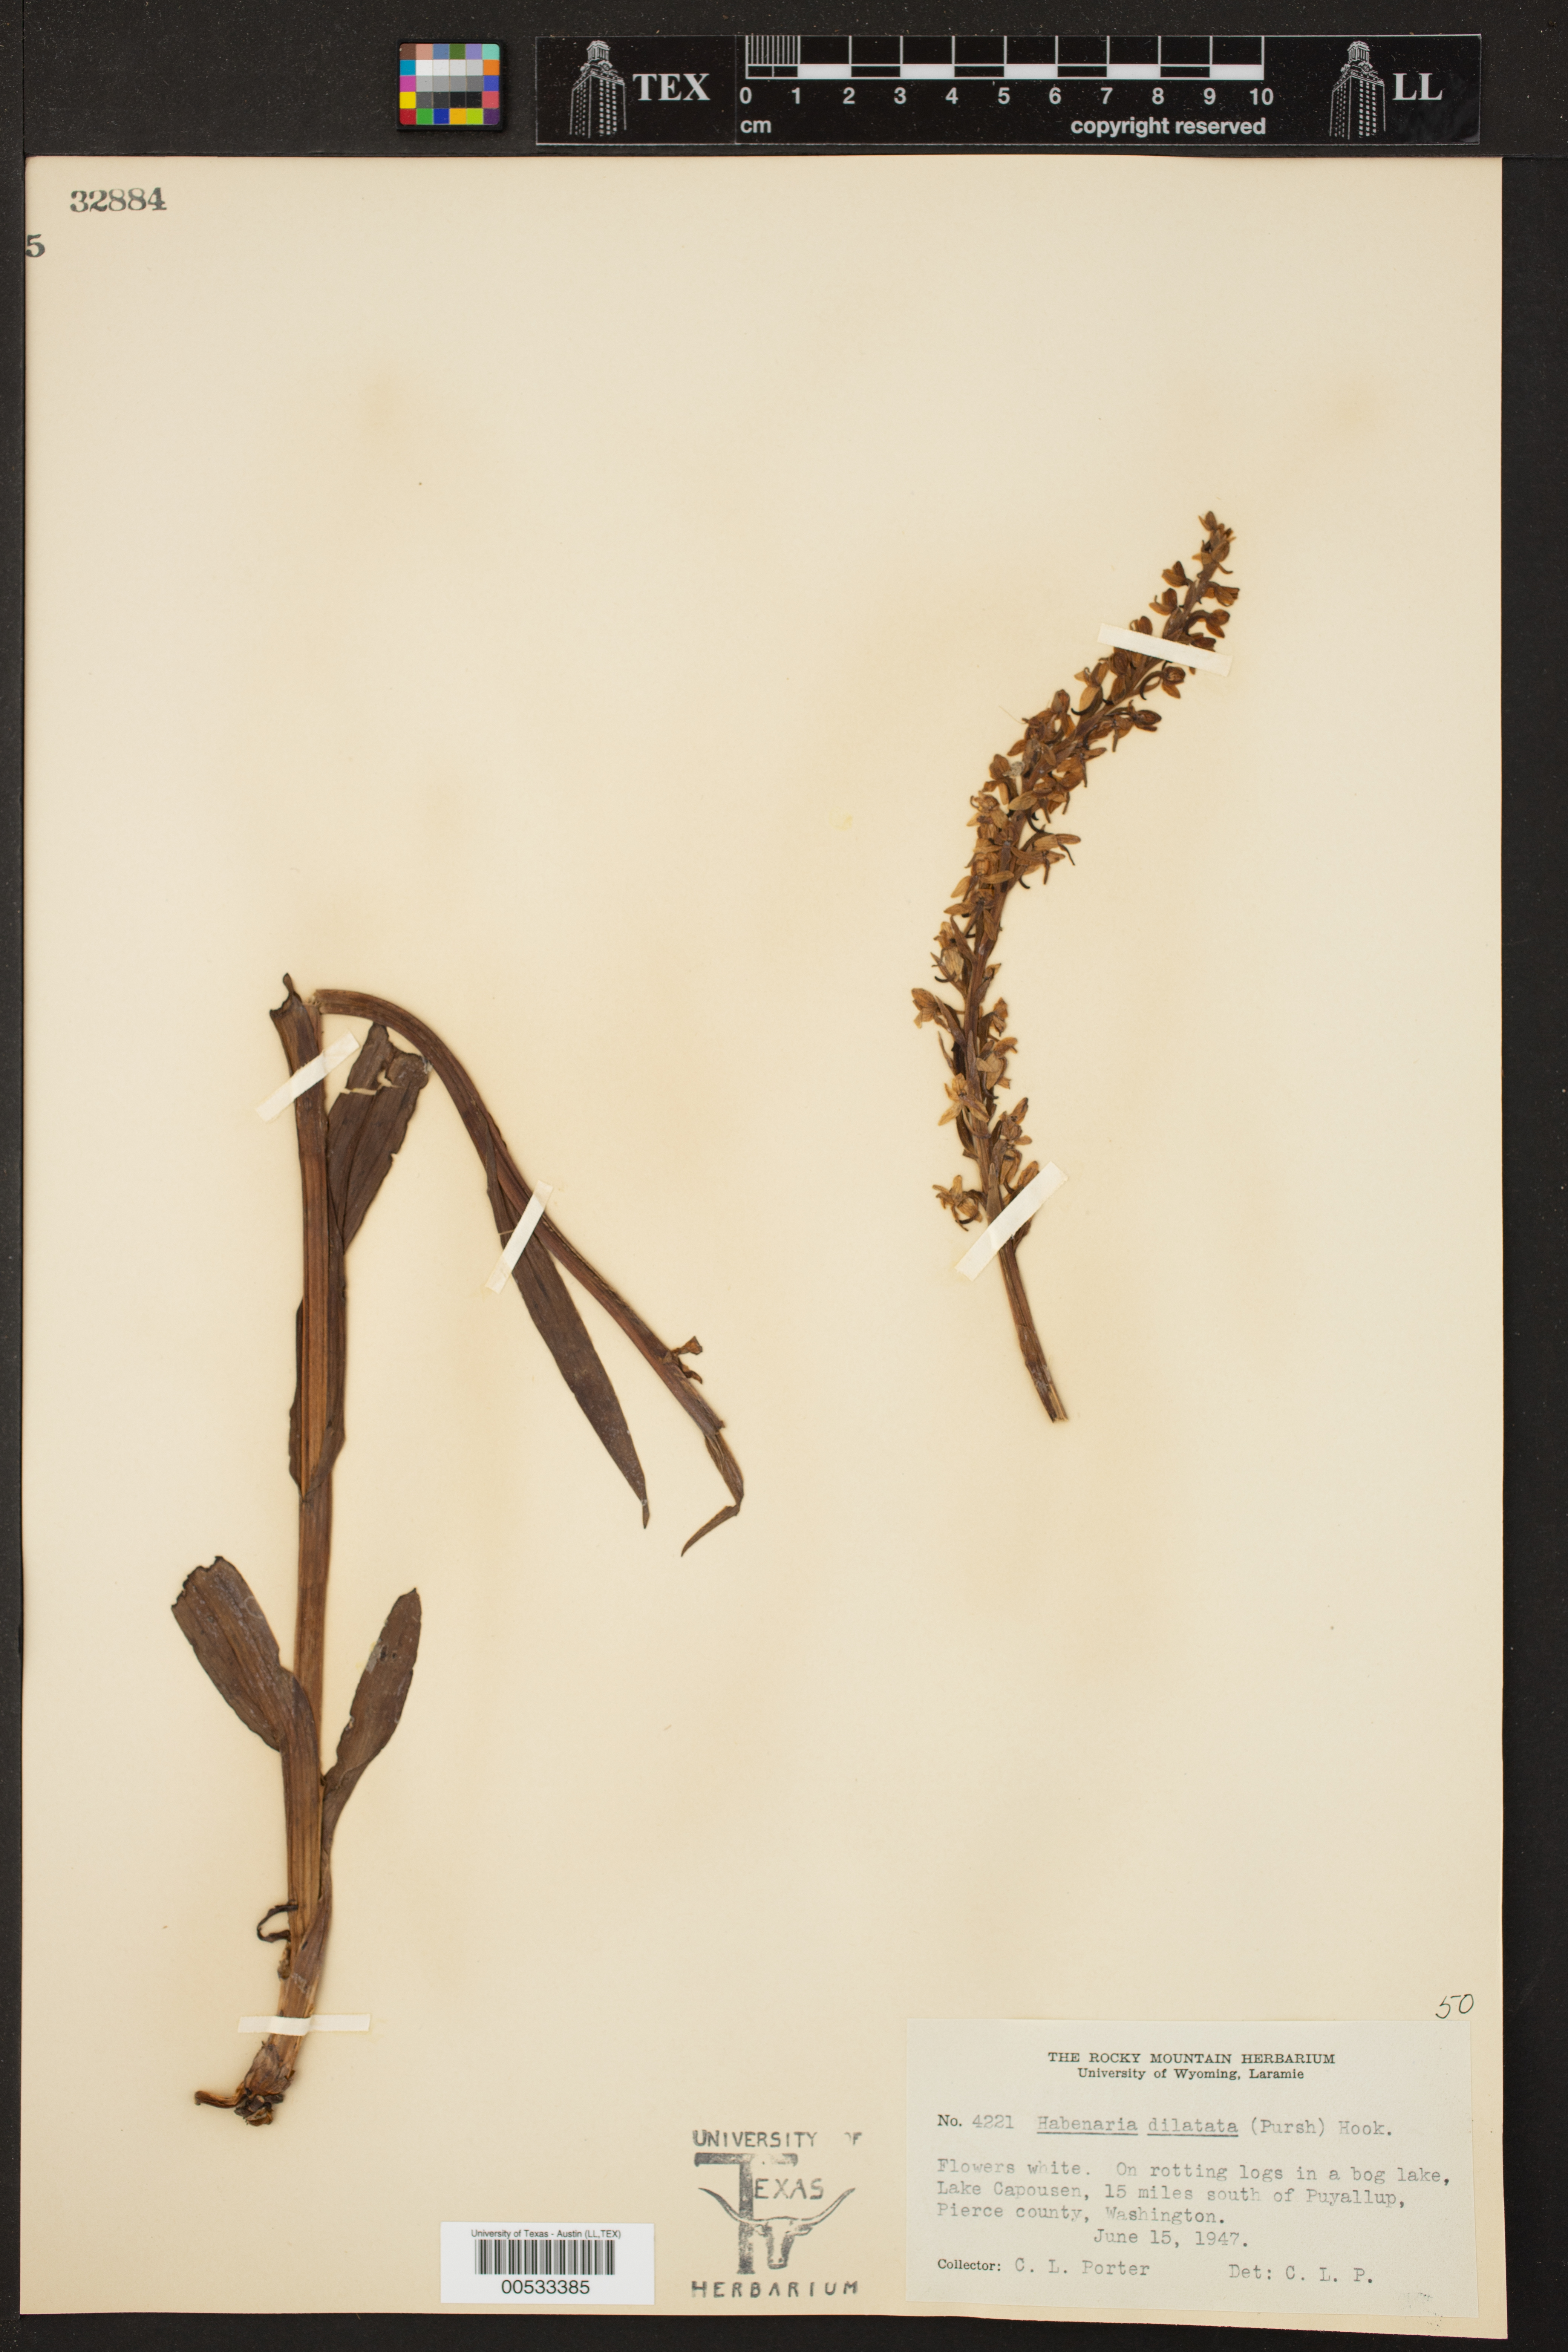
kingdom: Plantae
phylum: Tracheophyta
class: Liliopsida
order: Asparagales
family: Orchidaceae
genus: Habenaria
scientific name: Habenaria dilatata
